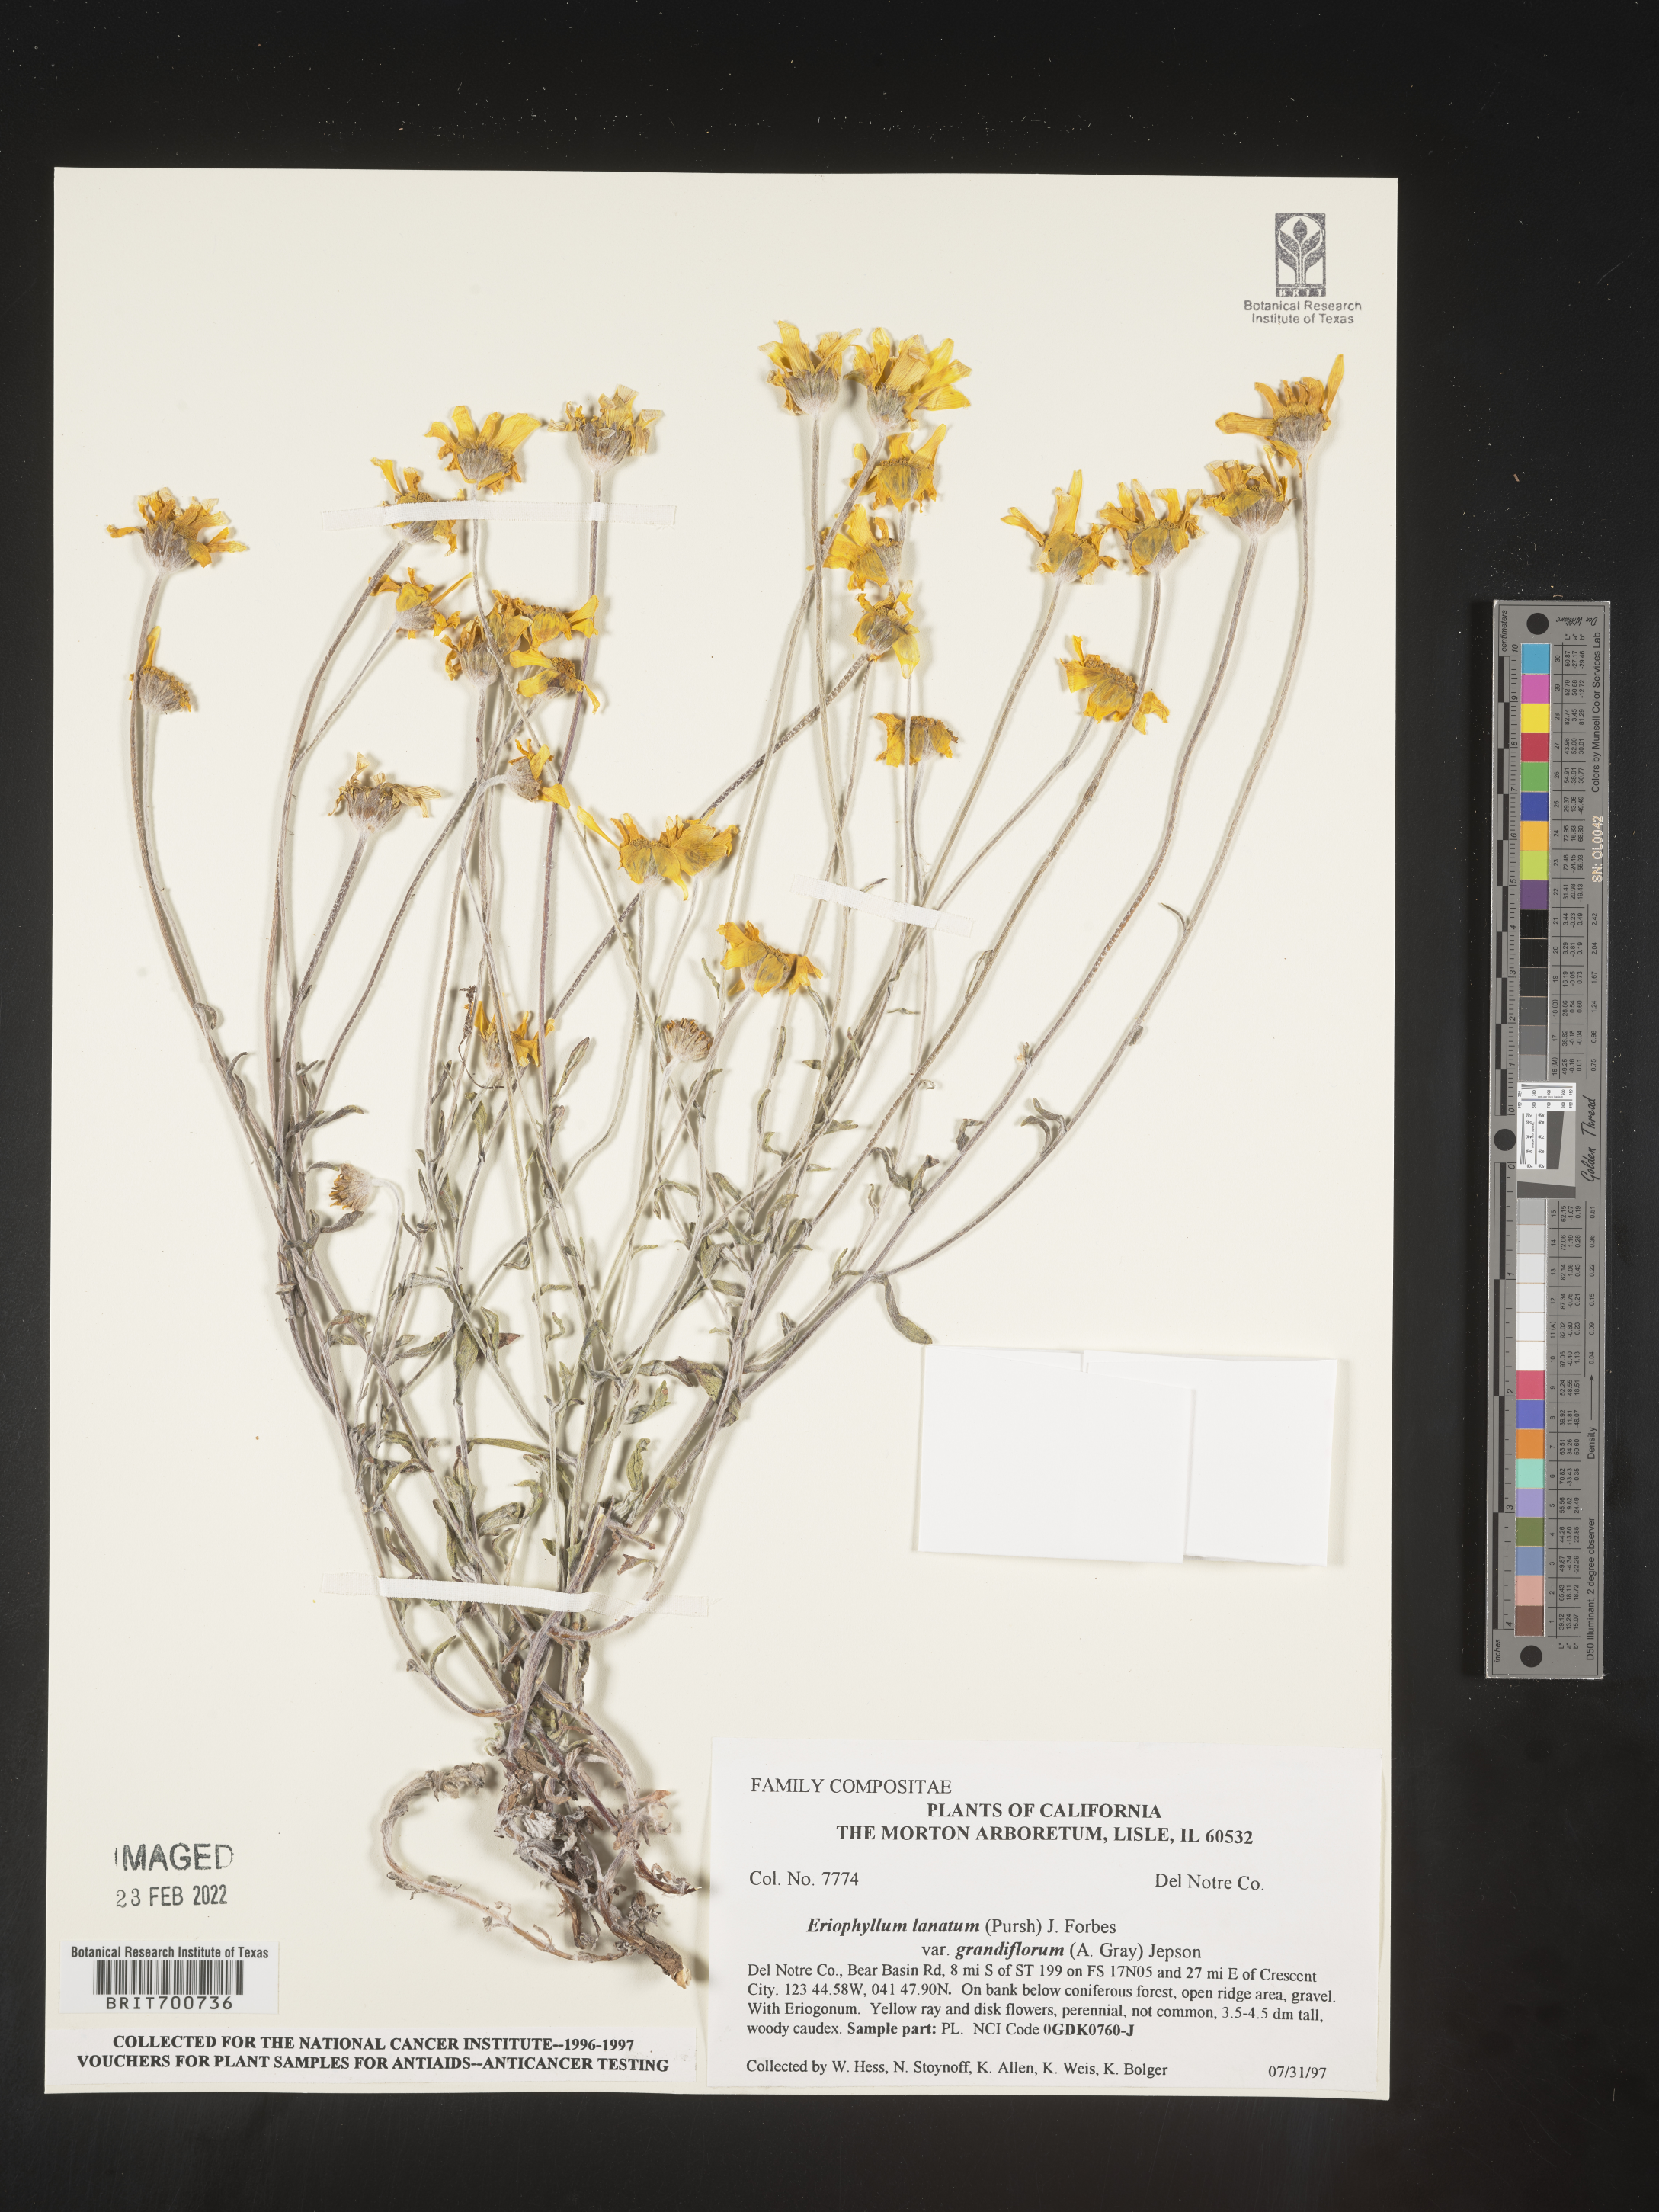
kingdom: Plantae
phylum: Tracheophyta
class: Magnoliopsida
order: Asterales
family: Asteraceae
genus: Eriophyllum
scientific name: Eriophyllum lanatum
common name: Common woolly-sunflower
